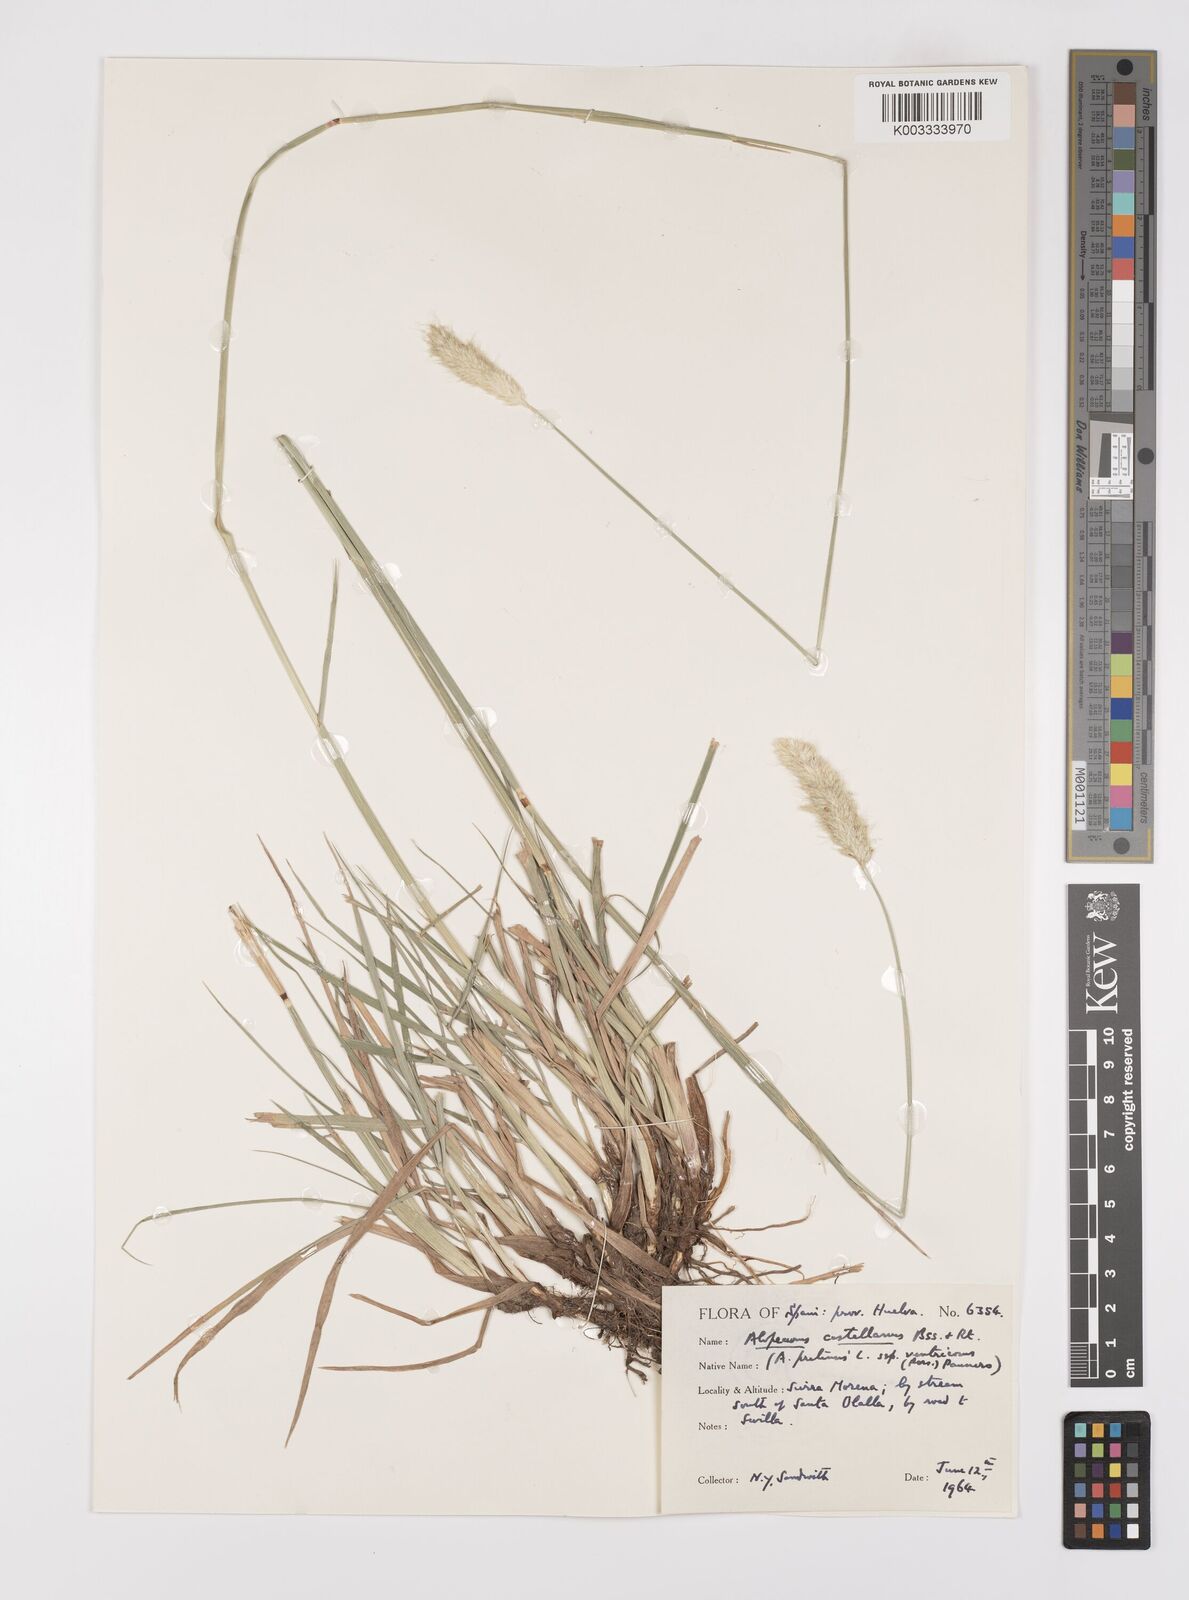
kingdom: Plantae
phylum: Tracheophyta
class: Liliopsida
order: Poales
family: Poaceae
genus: Alopecurus
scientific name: Alopecurus arundinaceus
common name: Creeping meadow foxtail
